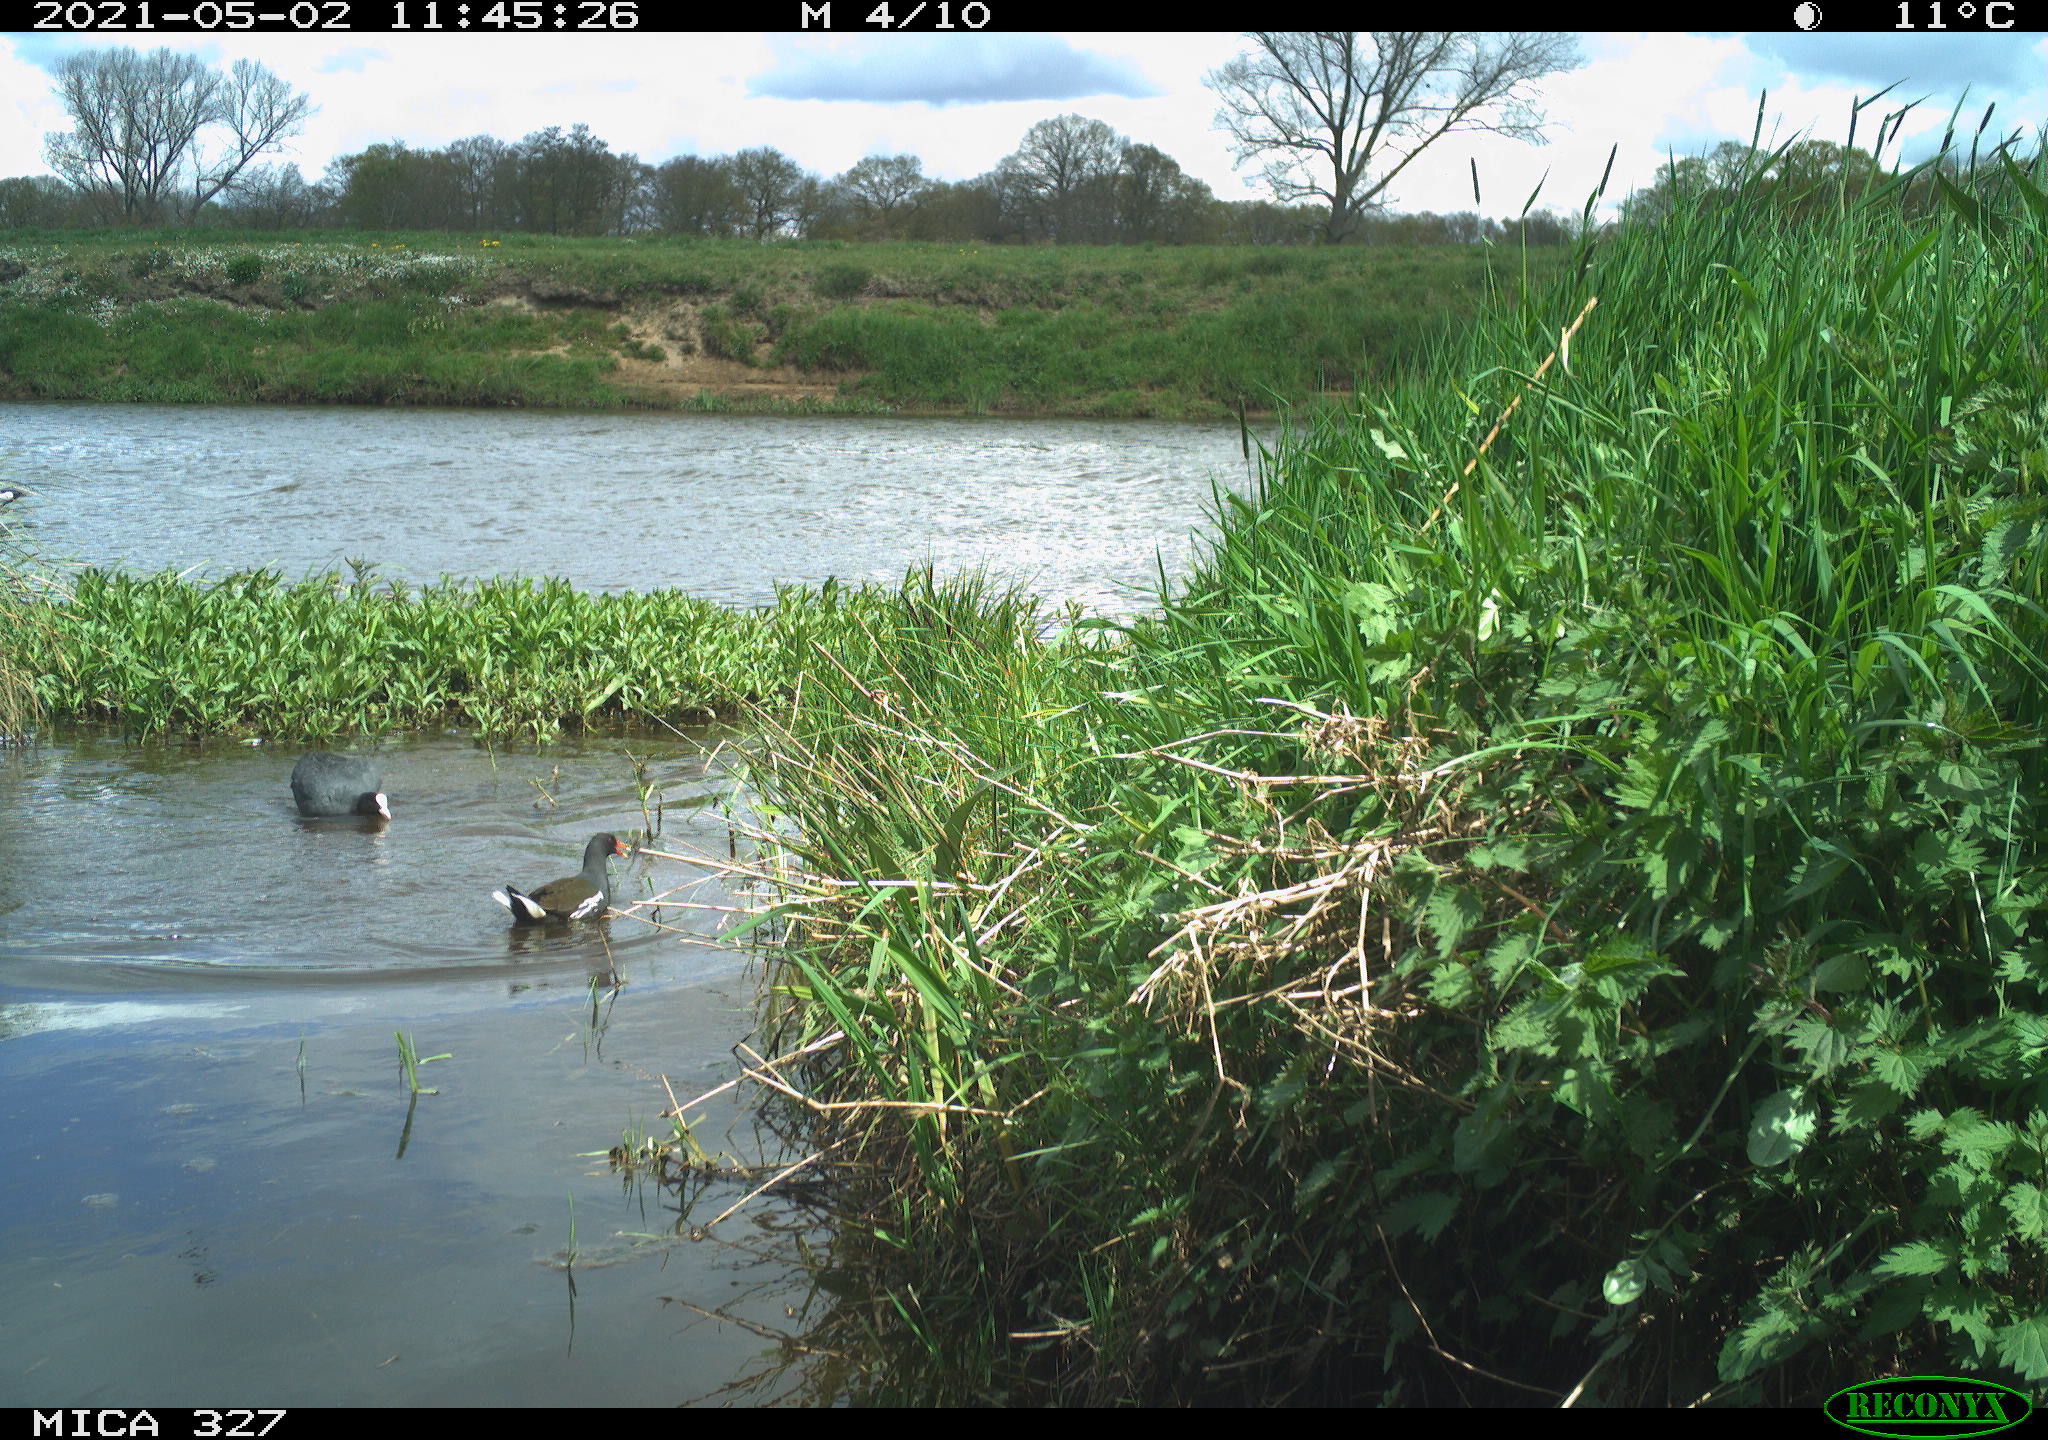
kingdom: Animalia
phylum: Chordata
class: Aves
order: Gruiformes
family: Rallidae
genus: Fulica
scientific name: Fulica atra
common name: Eurasian coot
